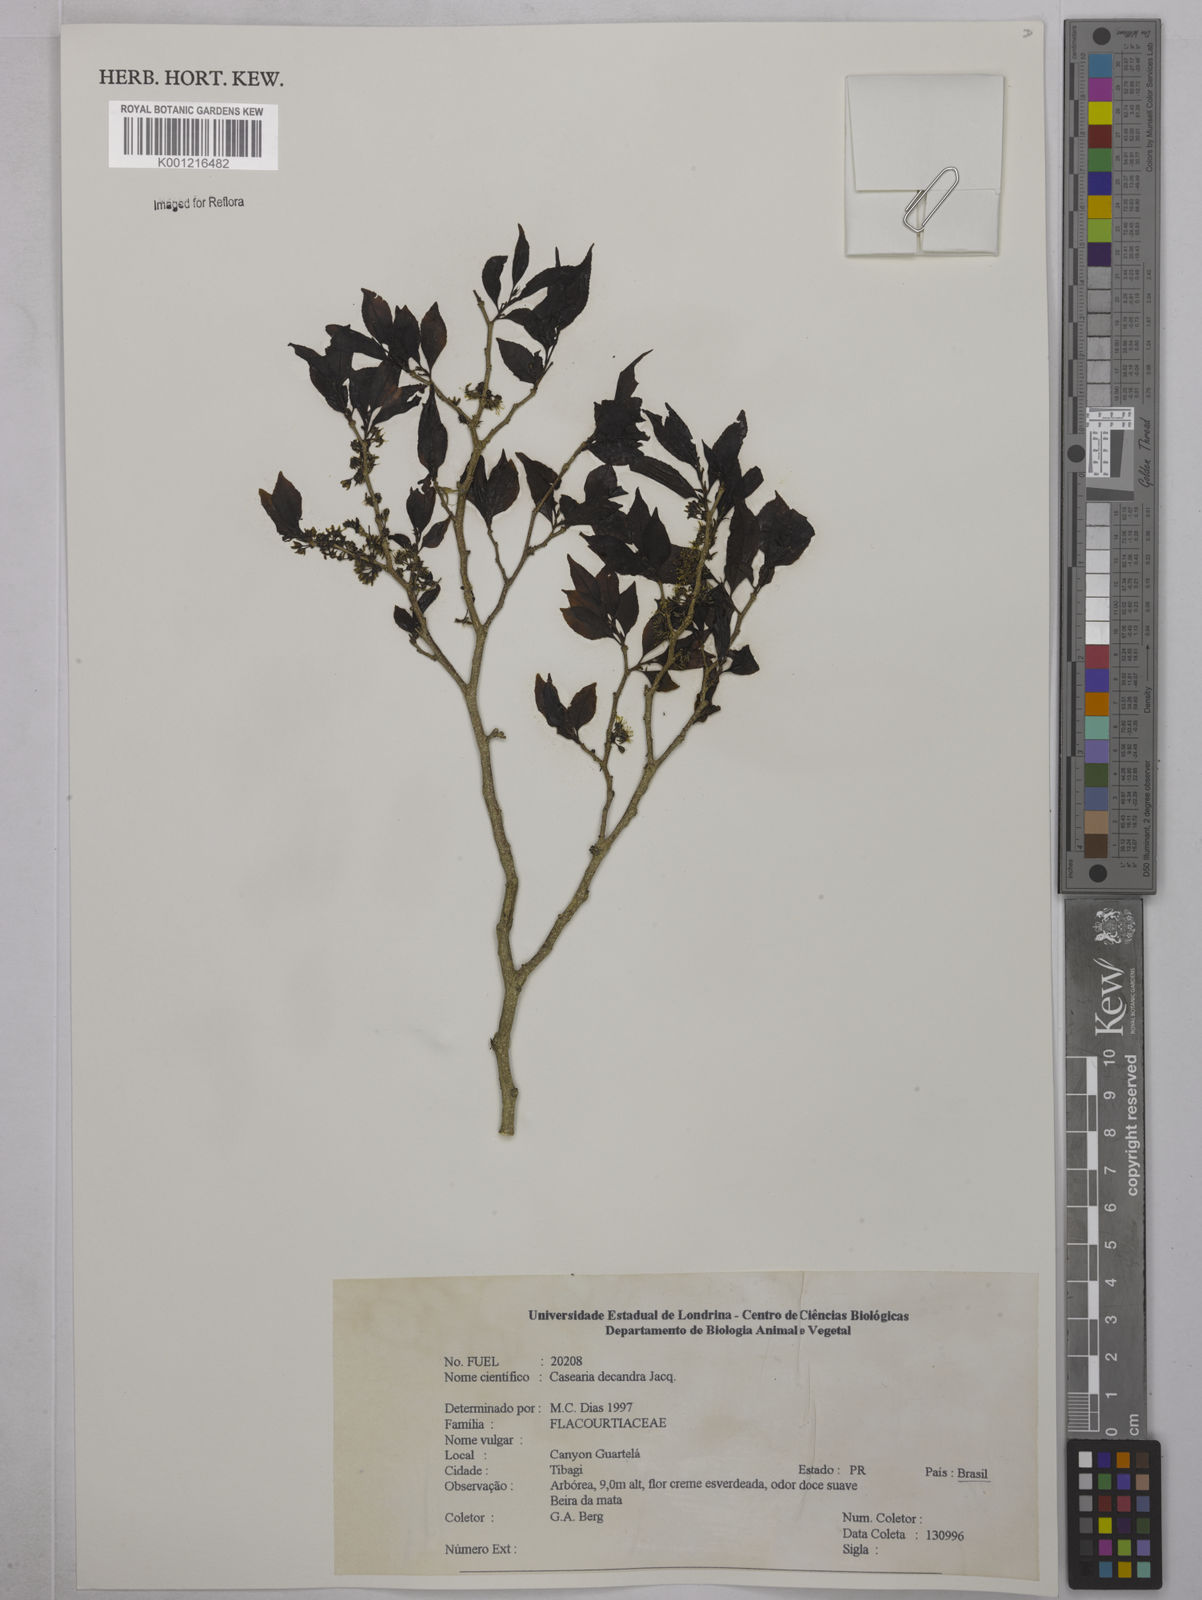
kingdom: Plantae
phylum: Tracheophyta
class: Magnoliopsida
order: Malpighiales
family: Salicaceae
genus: Casearia
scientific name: Casearia decandra
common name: Crack open
